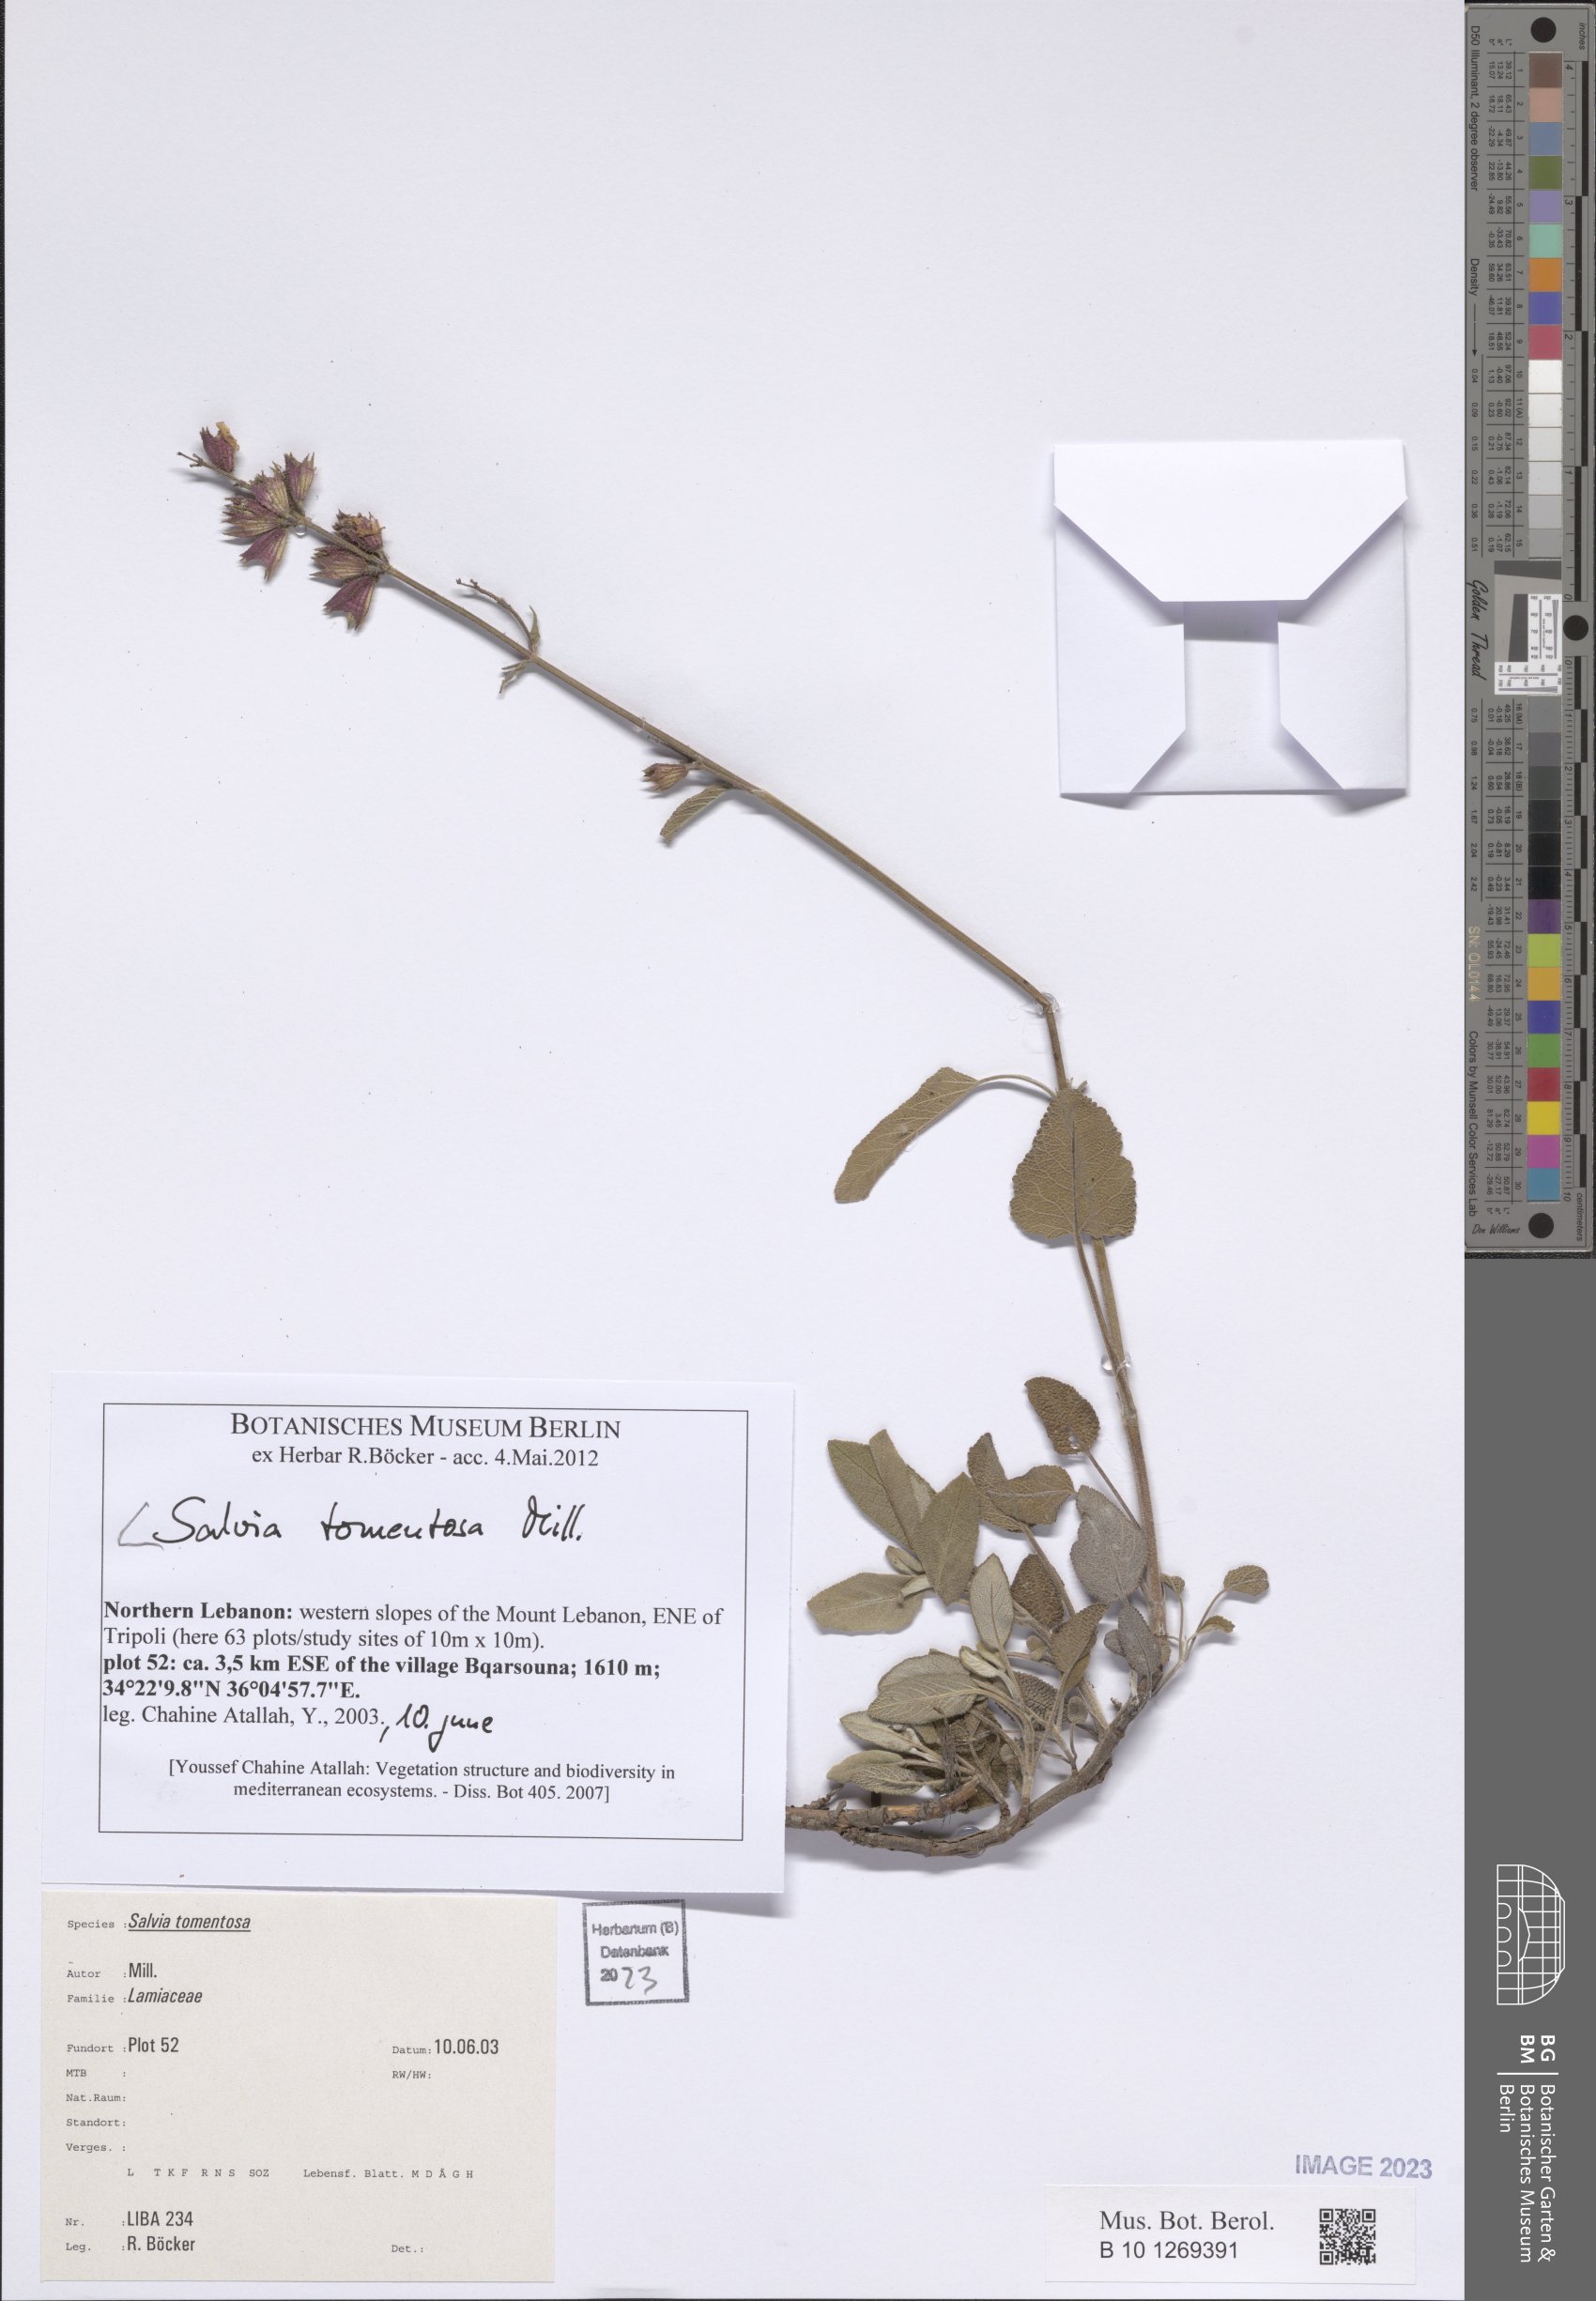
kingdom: Plantae
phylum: Tracheophyta
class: Magnoliopsida
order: Lamiales
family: Lamiaceae
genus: Salvia
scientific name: Salvia tomentosa
